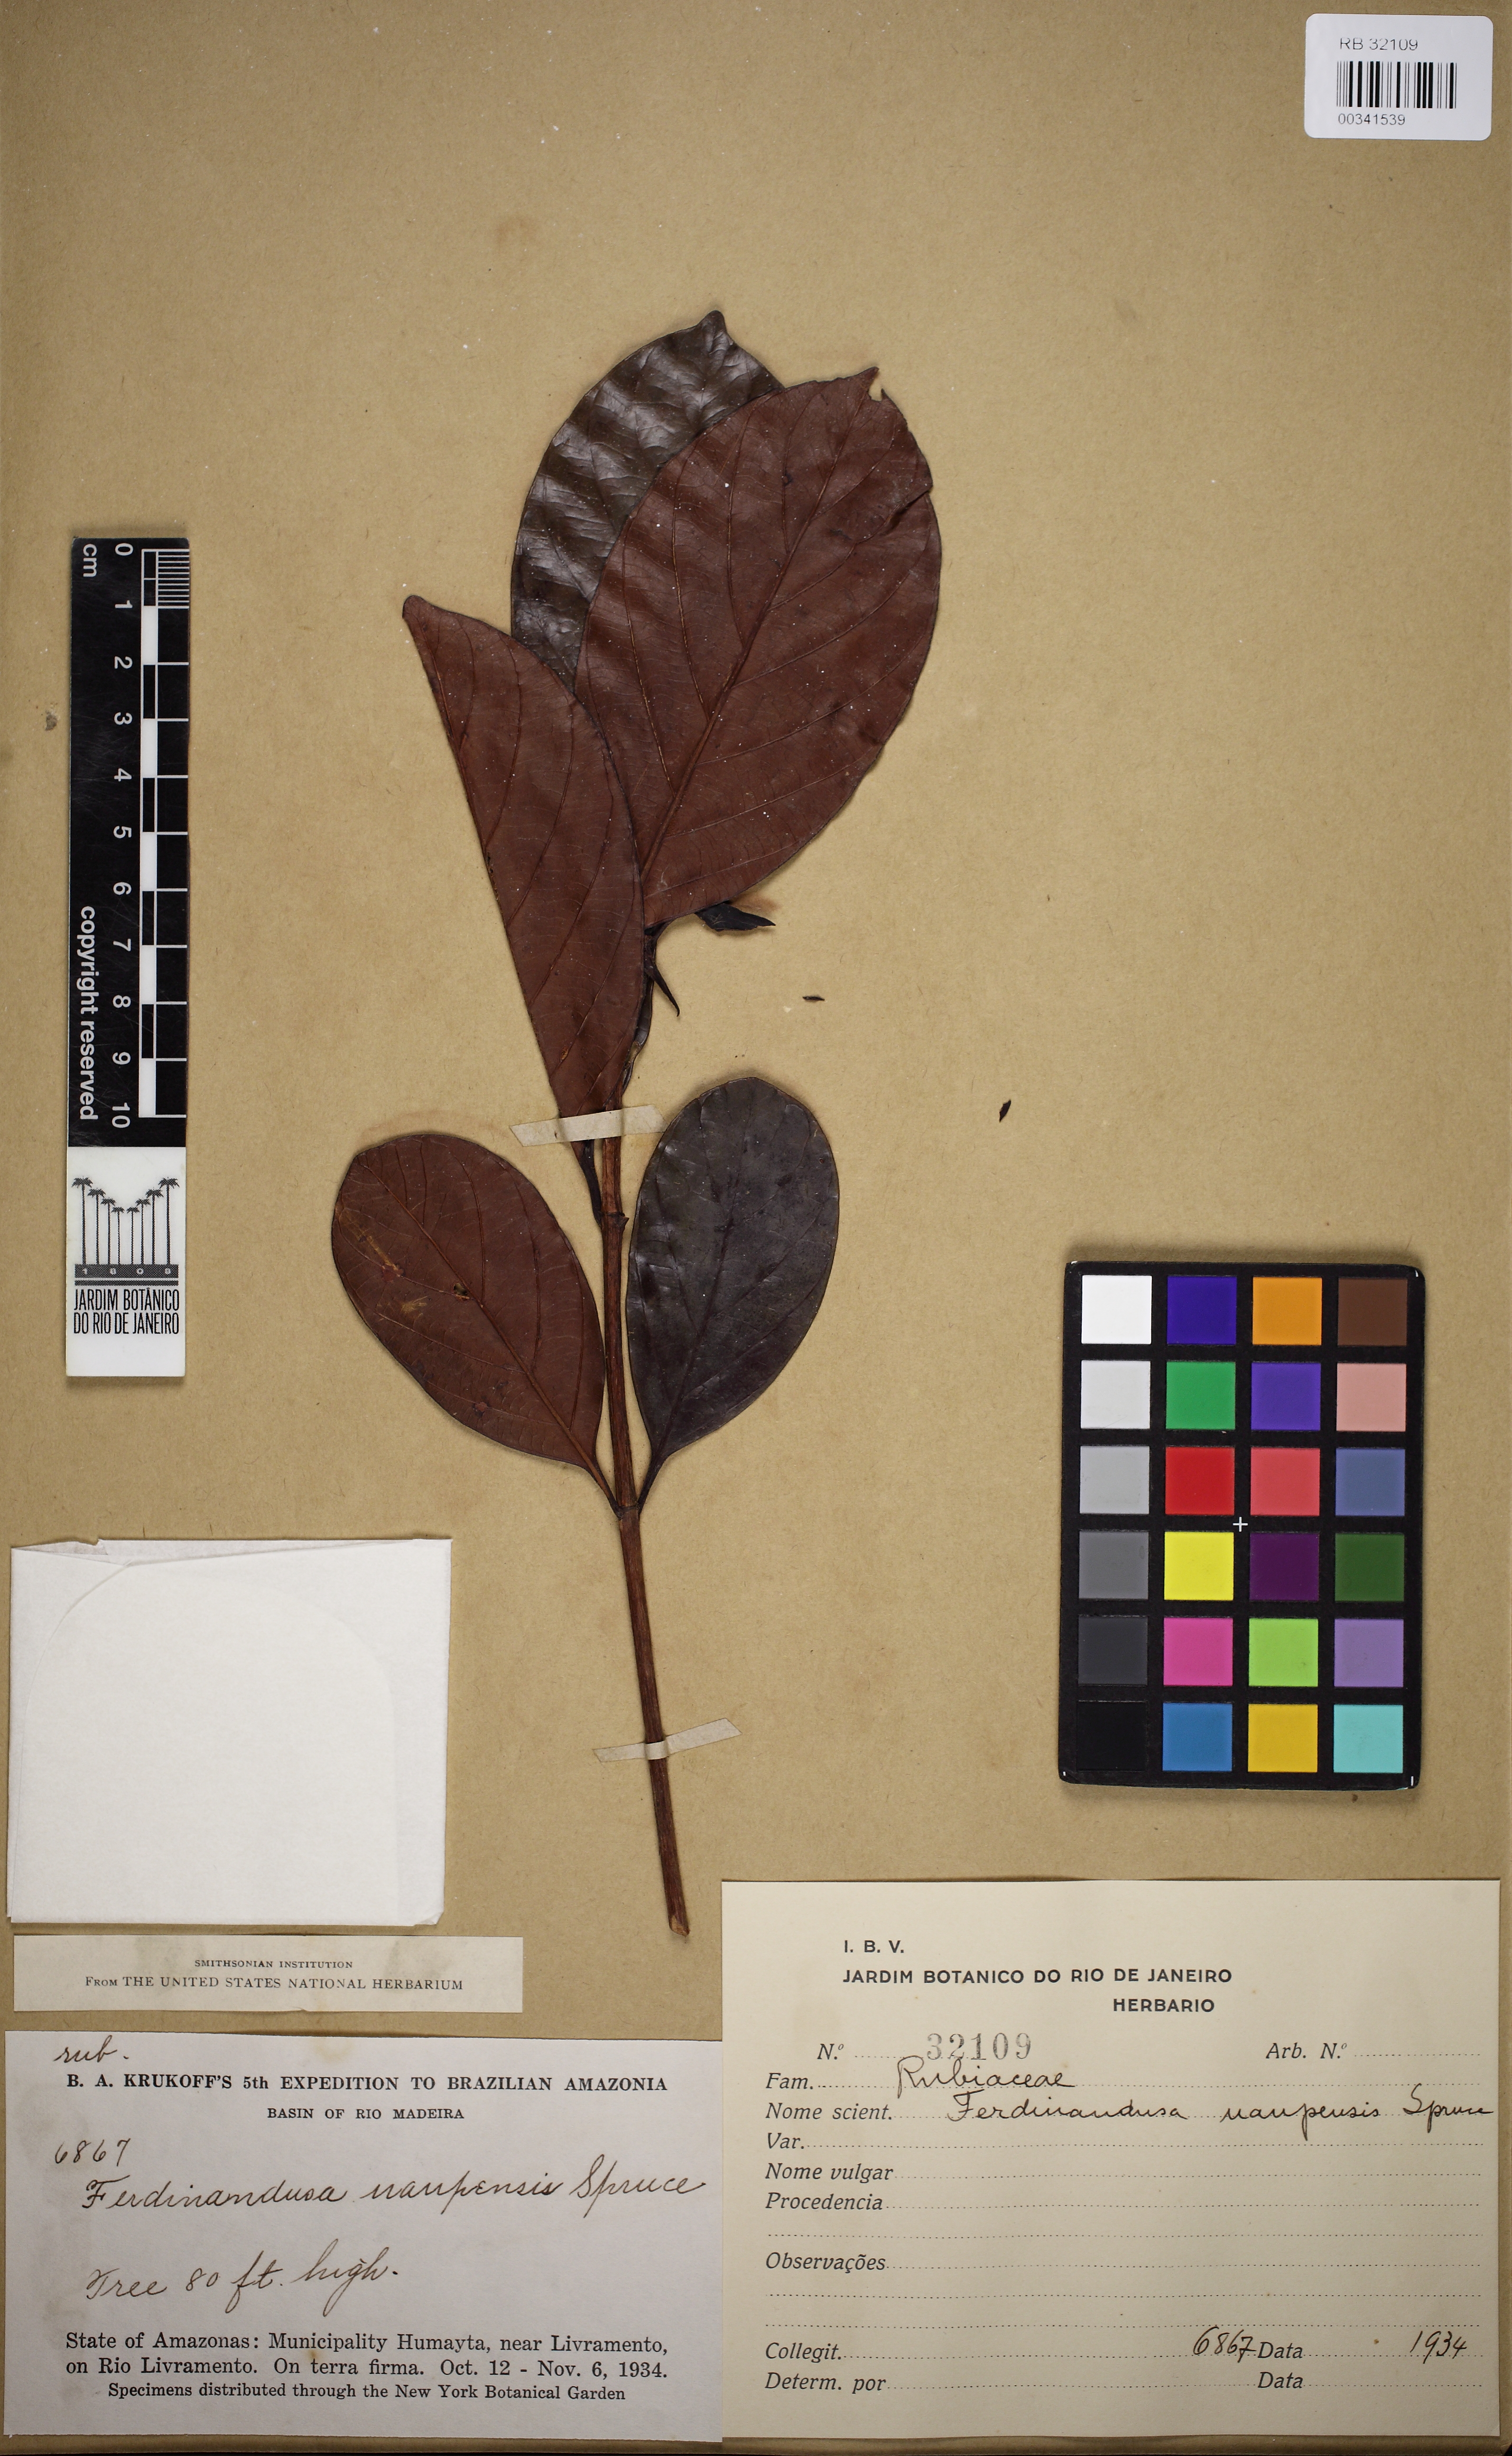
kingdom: Plantae
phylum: Tracheophyta
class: Magnoliopsida
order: Gentianales
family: Rubiaceae
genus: Ferdinandusa
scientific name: Ferdinandusa uaupensis
